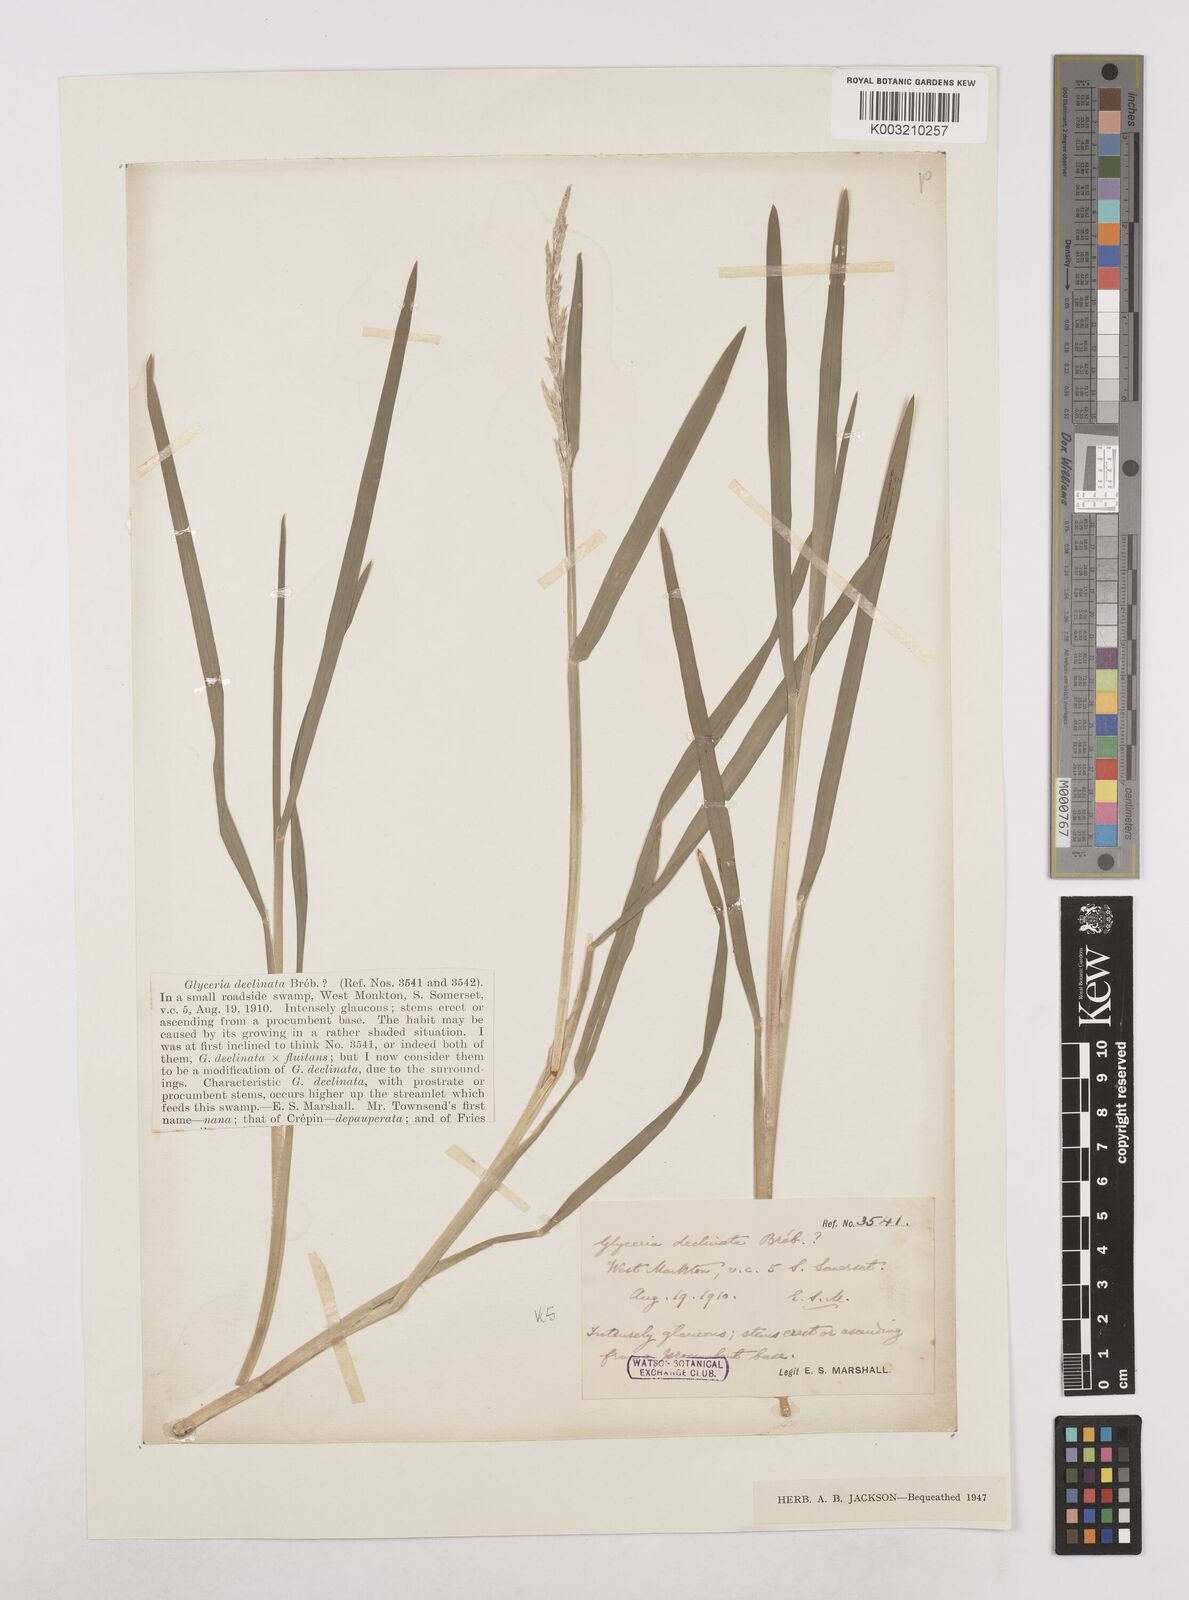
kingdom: Plantae
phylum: Tracheophyta
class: Liliopsida
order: Poales
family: Poaceae
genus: Glyceria
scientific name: Glyceria declinata
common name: Small sweet-grass
